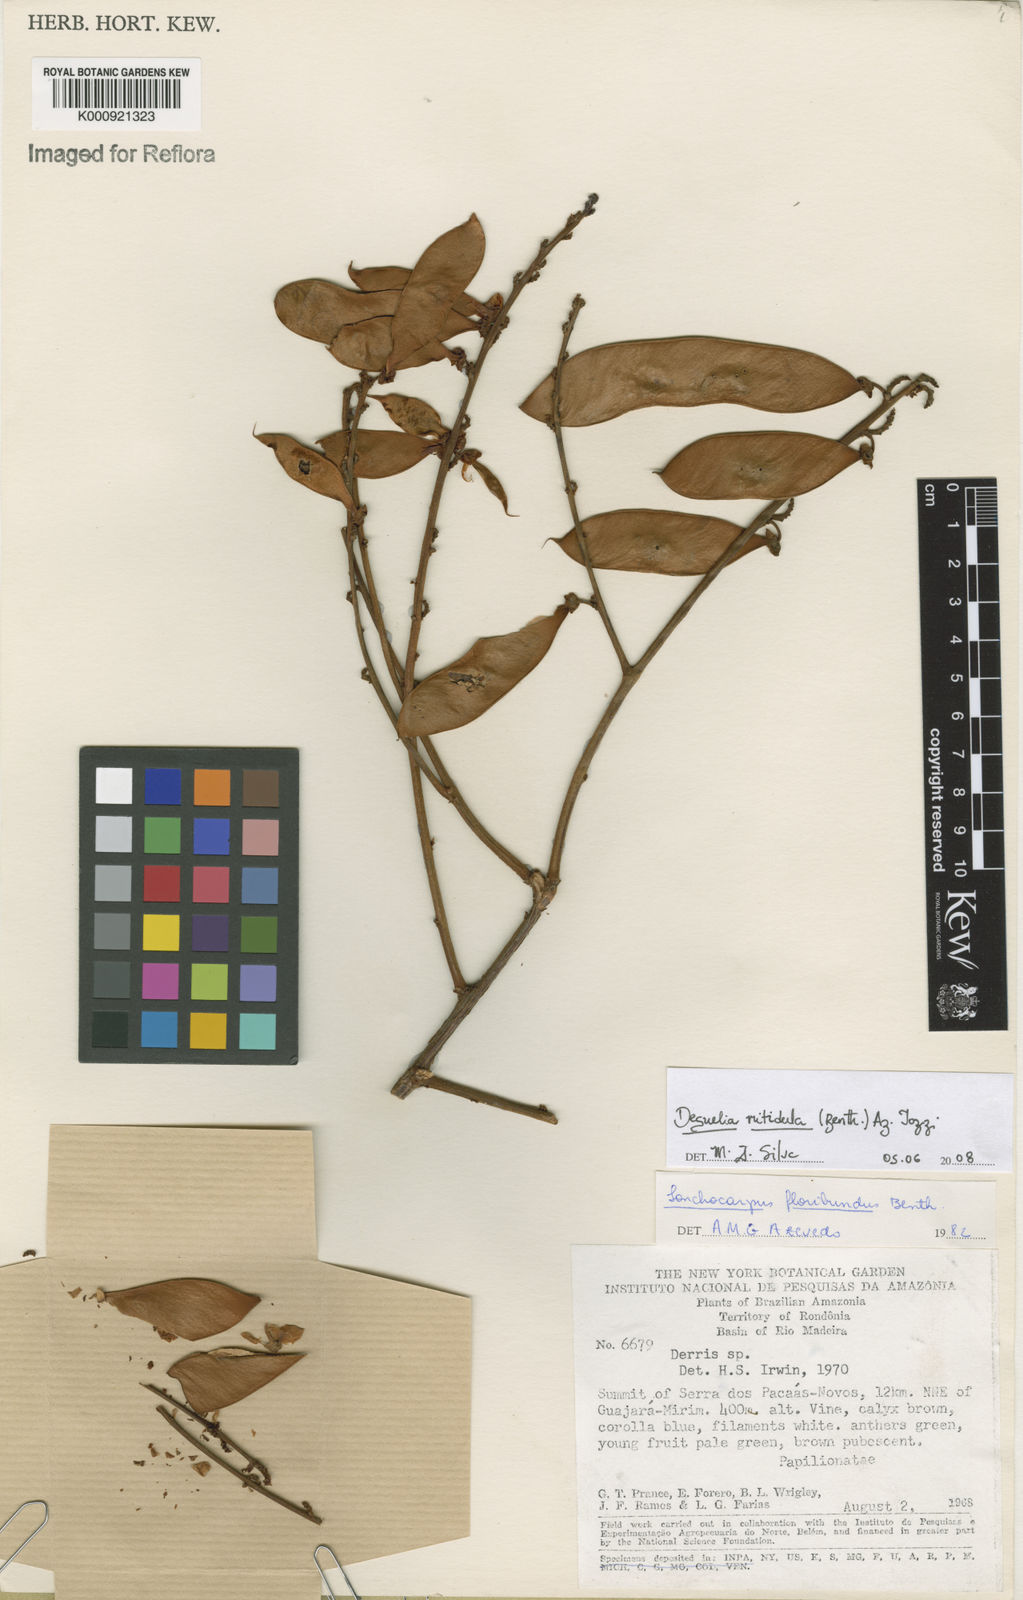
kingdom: Plantae
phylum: Tracheophyta
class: Magnoliopsida
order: Fabales
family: Fabaceae
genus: Deguelia
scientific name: Deguelia nitidula
